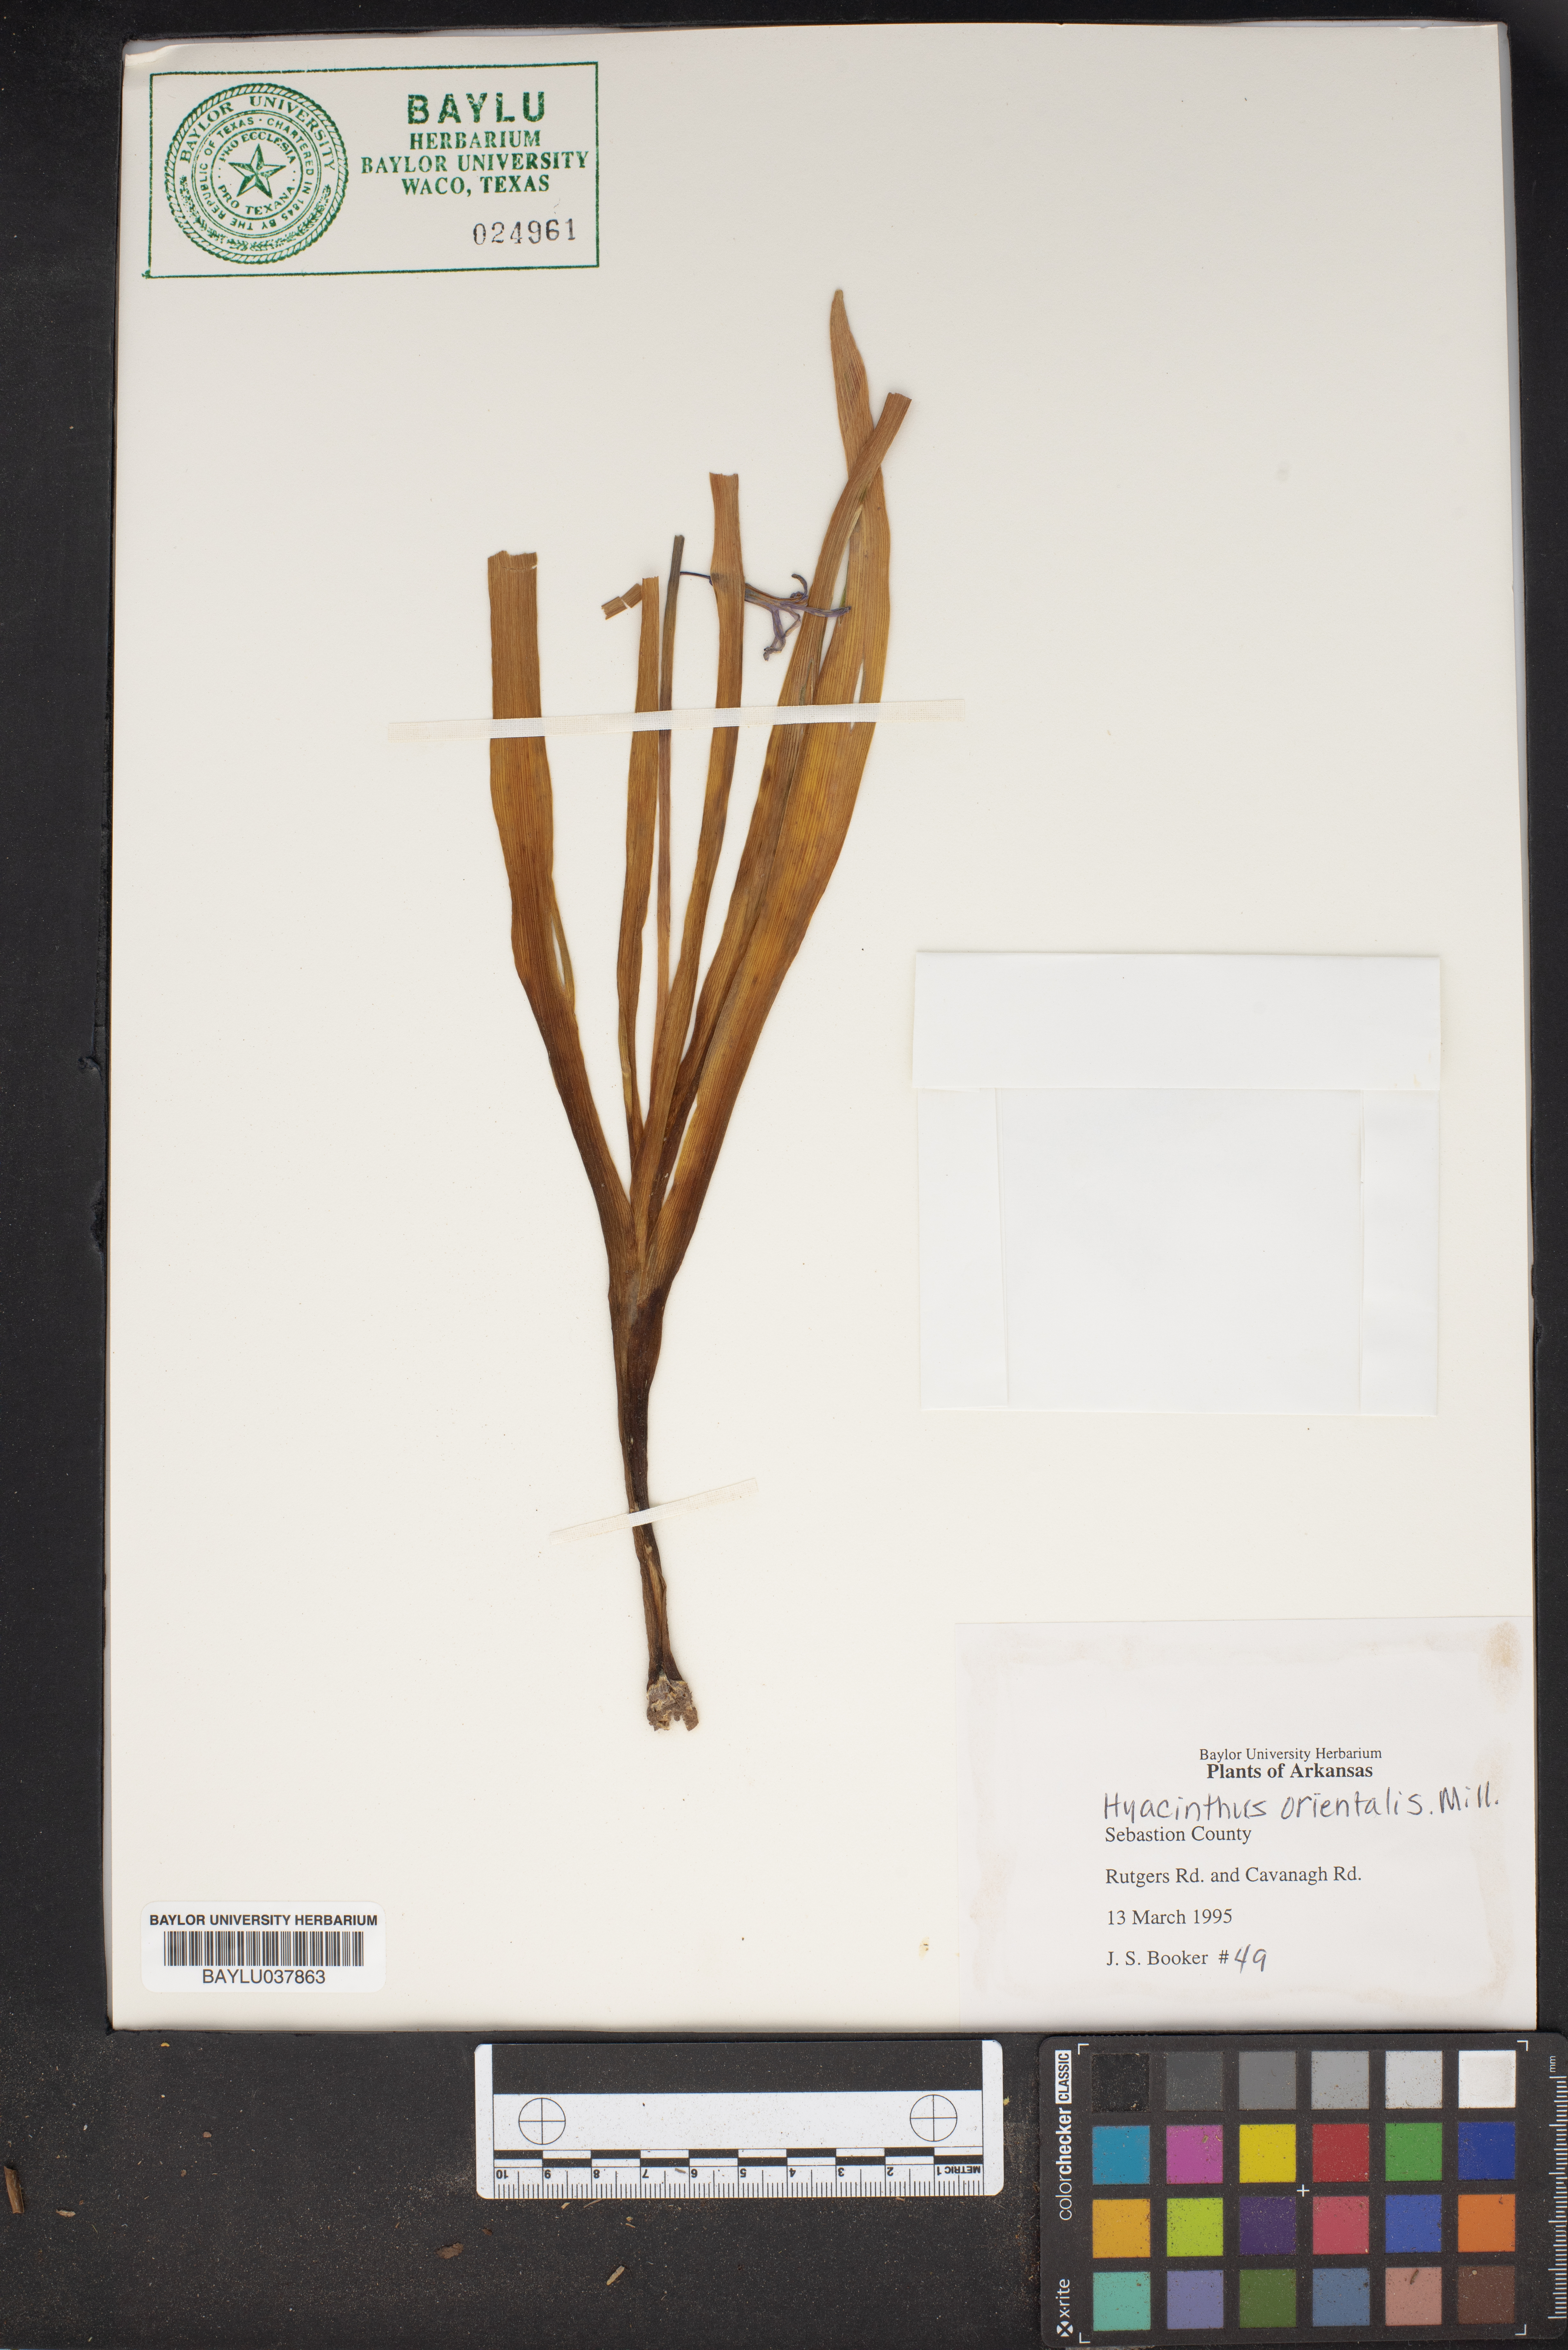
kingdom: Plantae
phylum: Tracheophyta
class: Liliopsida
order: Asparagales
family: Asparagaceae
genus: Hyacinthus
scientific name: Hyacinthus orientalis
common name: Hyacinth
